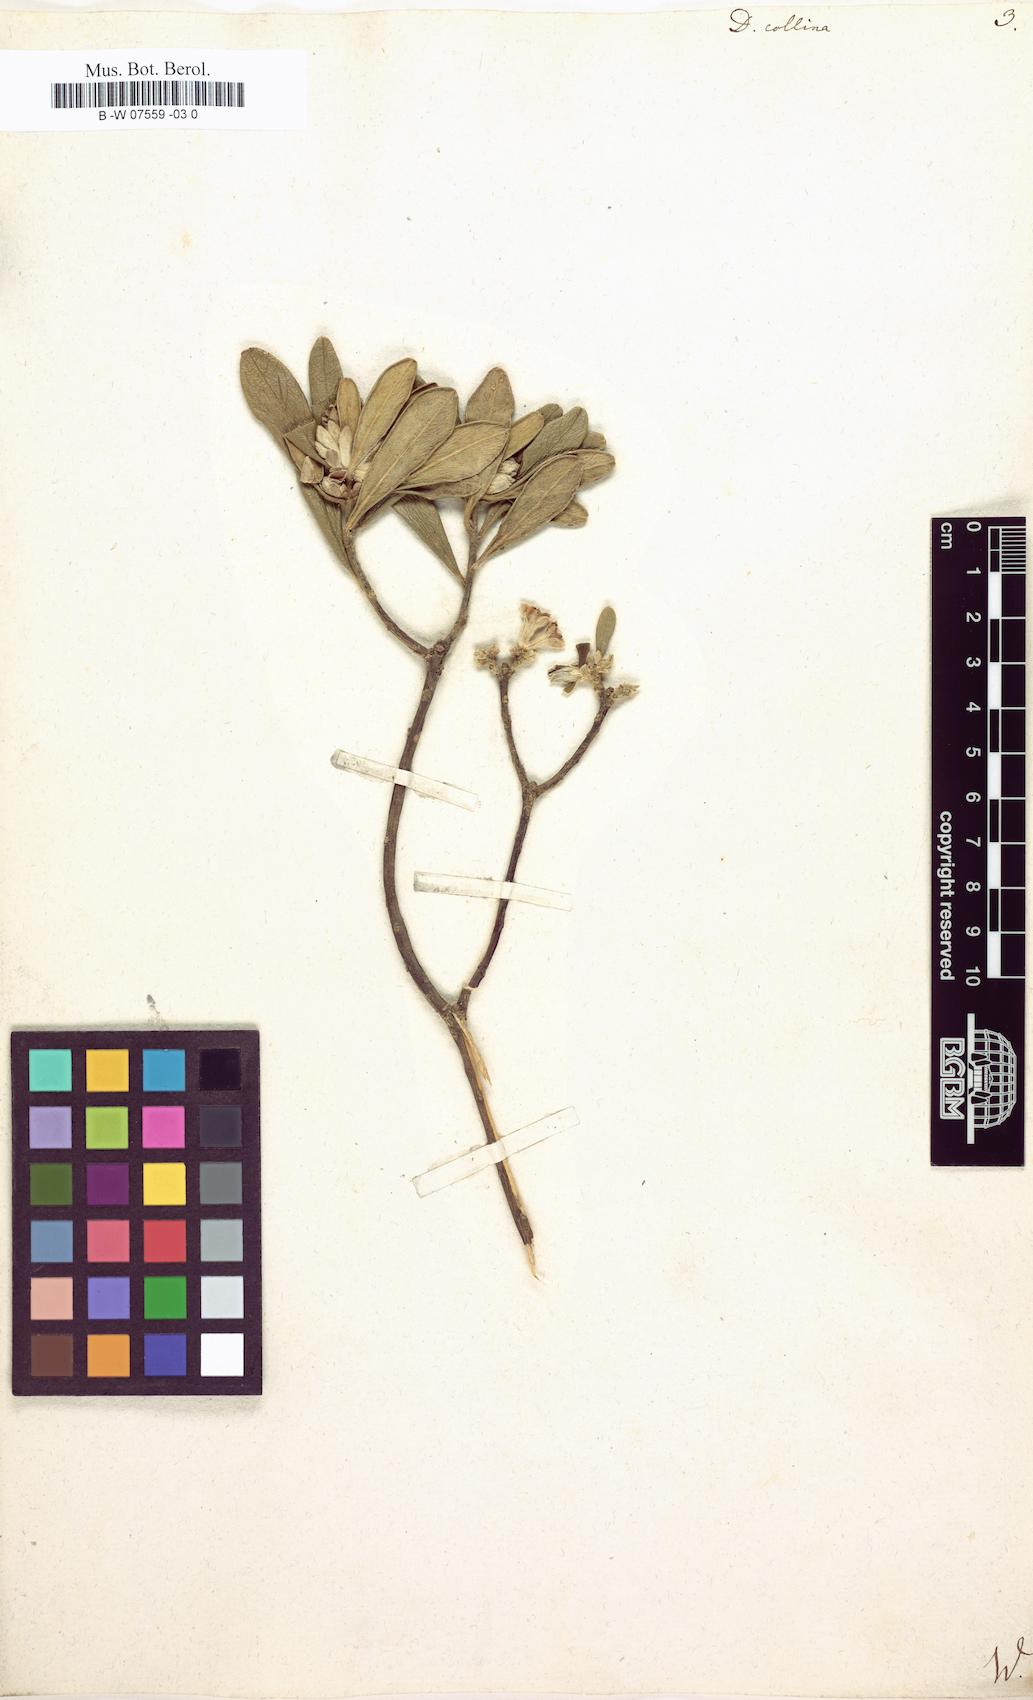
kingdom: Plantae
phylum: Tracheophyta
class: Magnoliopsida
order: Malvales
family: Thymelaeaceae
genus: Daphne
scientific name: Daphne
